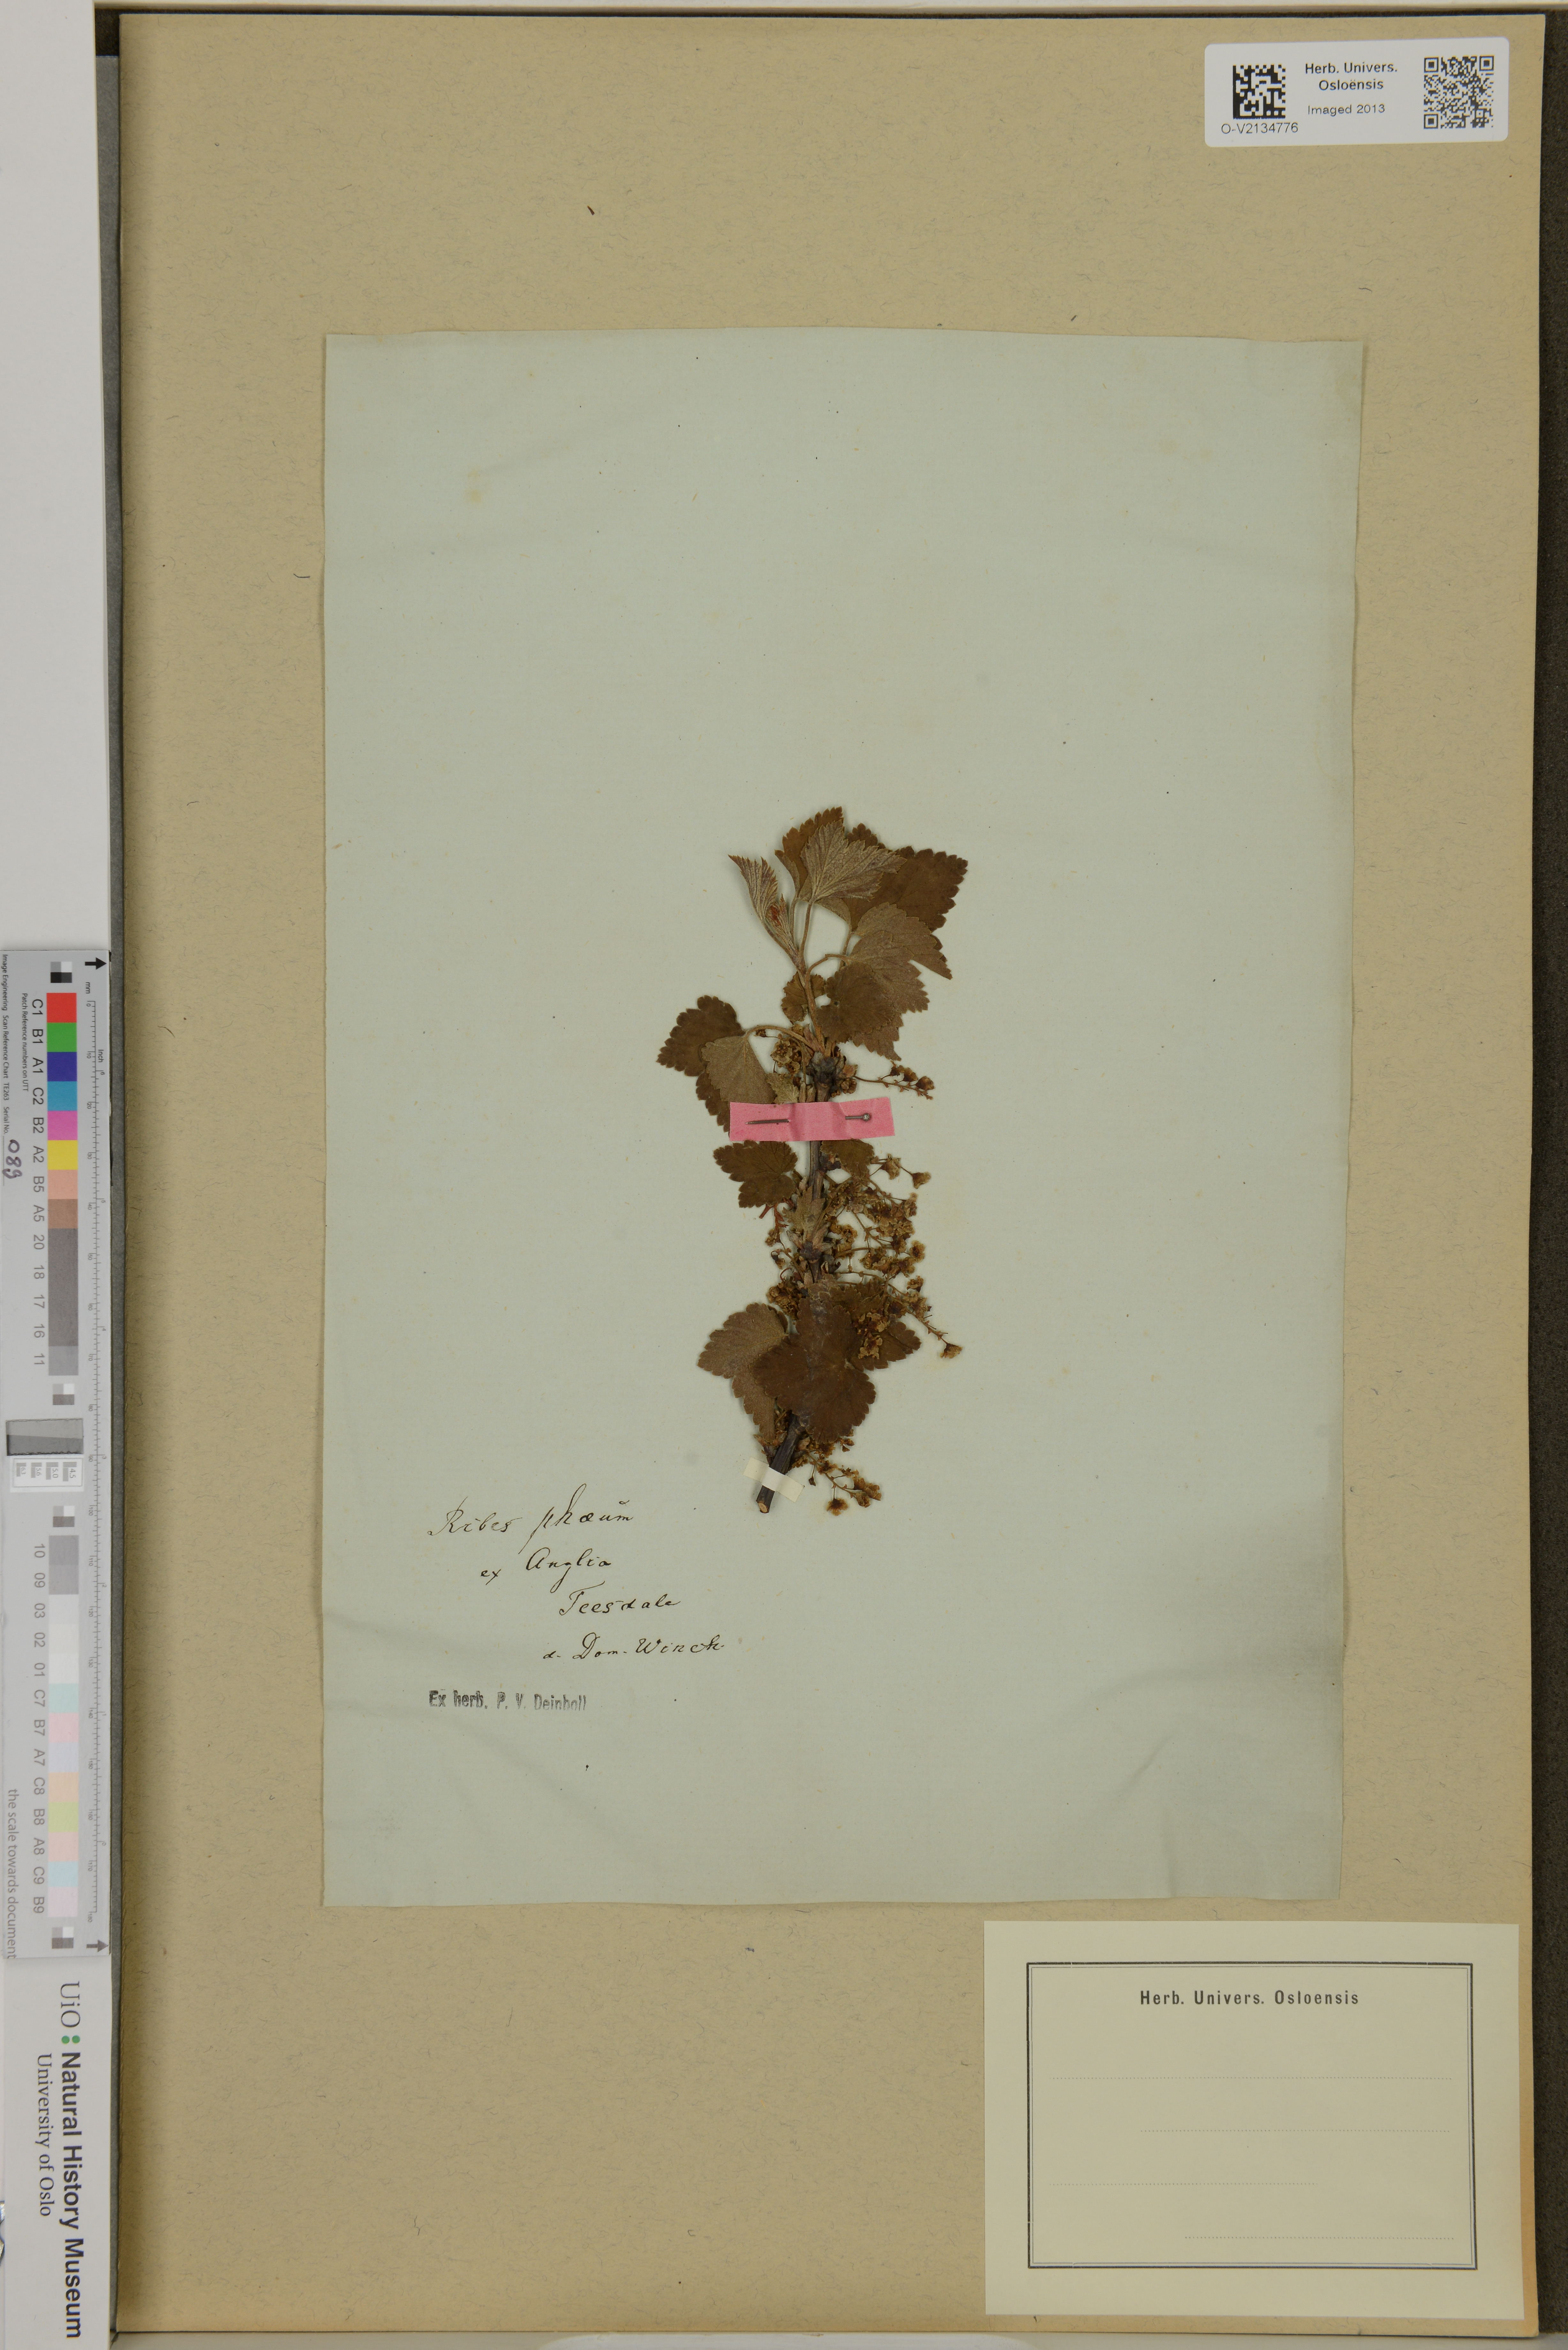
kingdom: Plantae
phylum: Tracheophyta
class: Magnoliopsida
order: Saxifragales
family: Grossulariaceae
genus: Ribes
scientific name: Ribes
